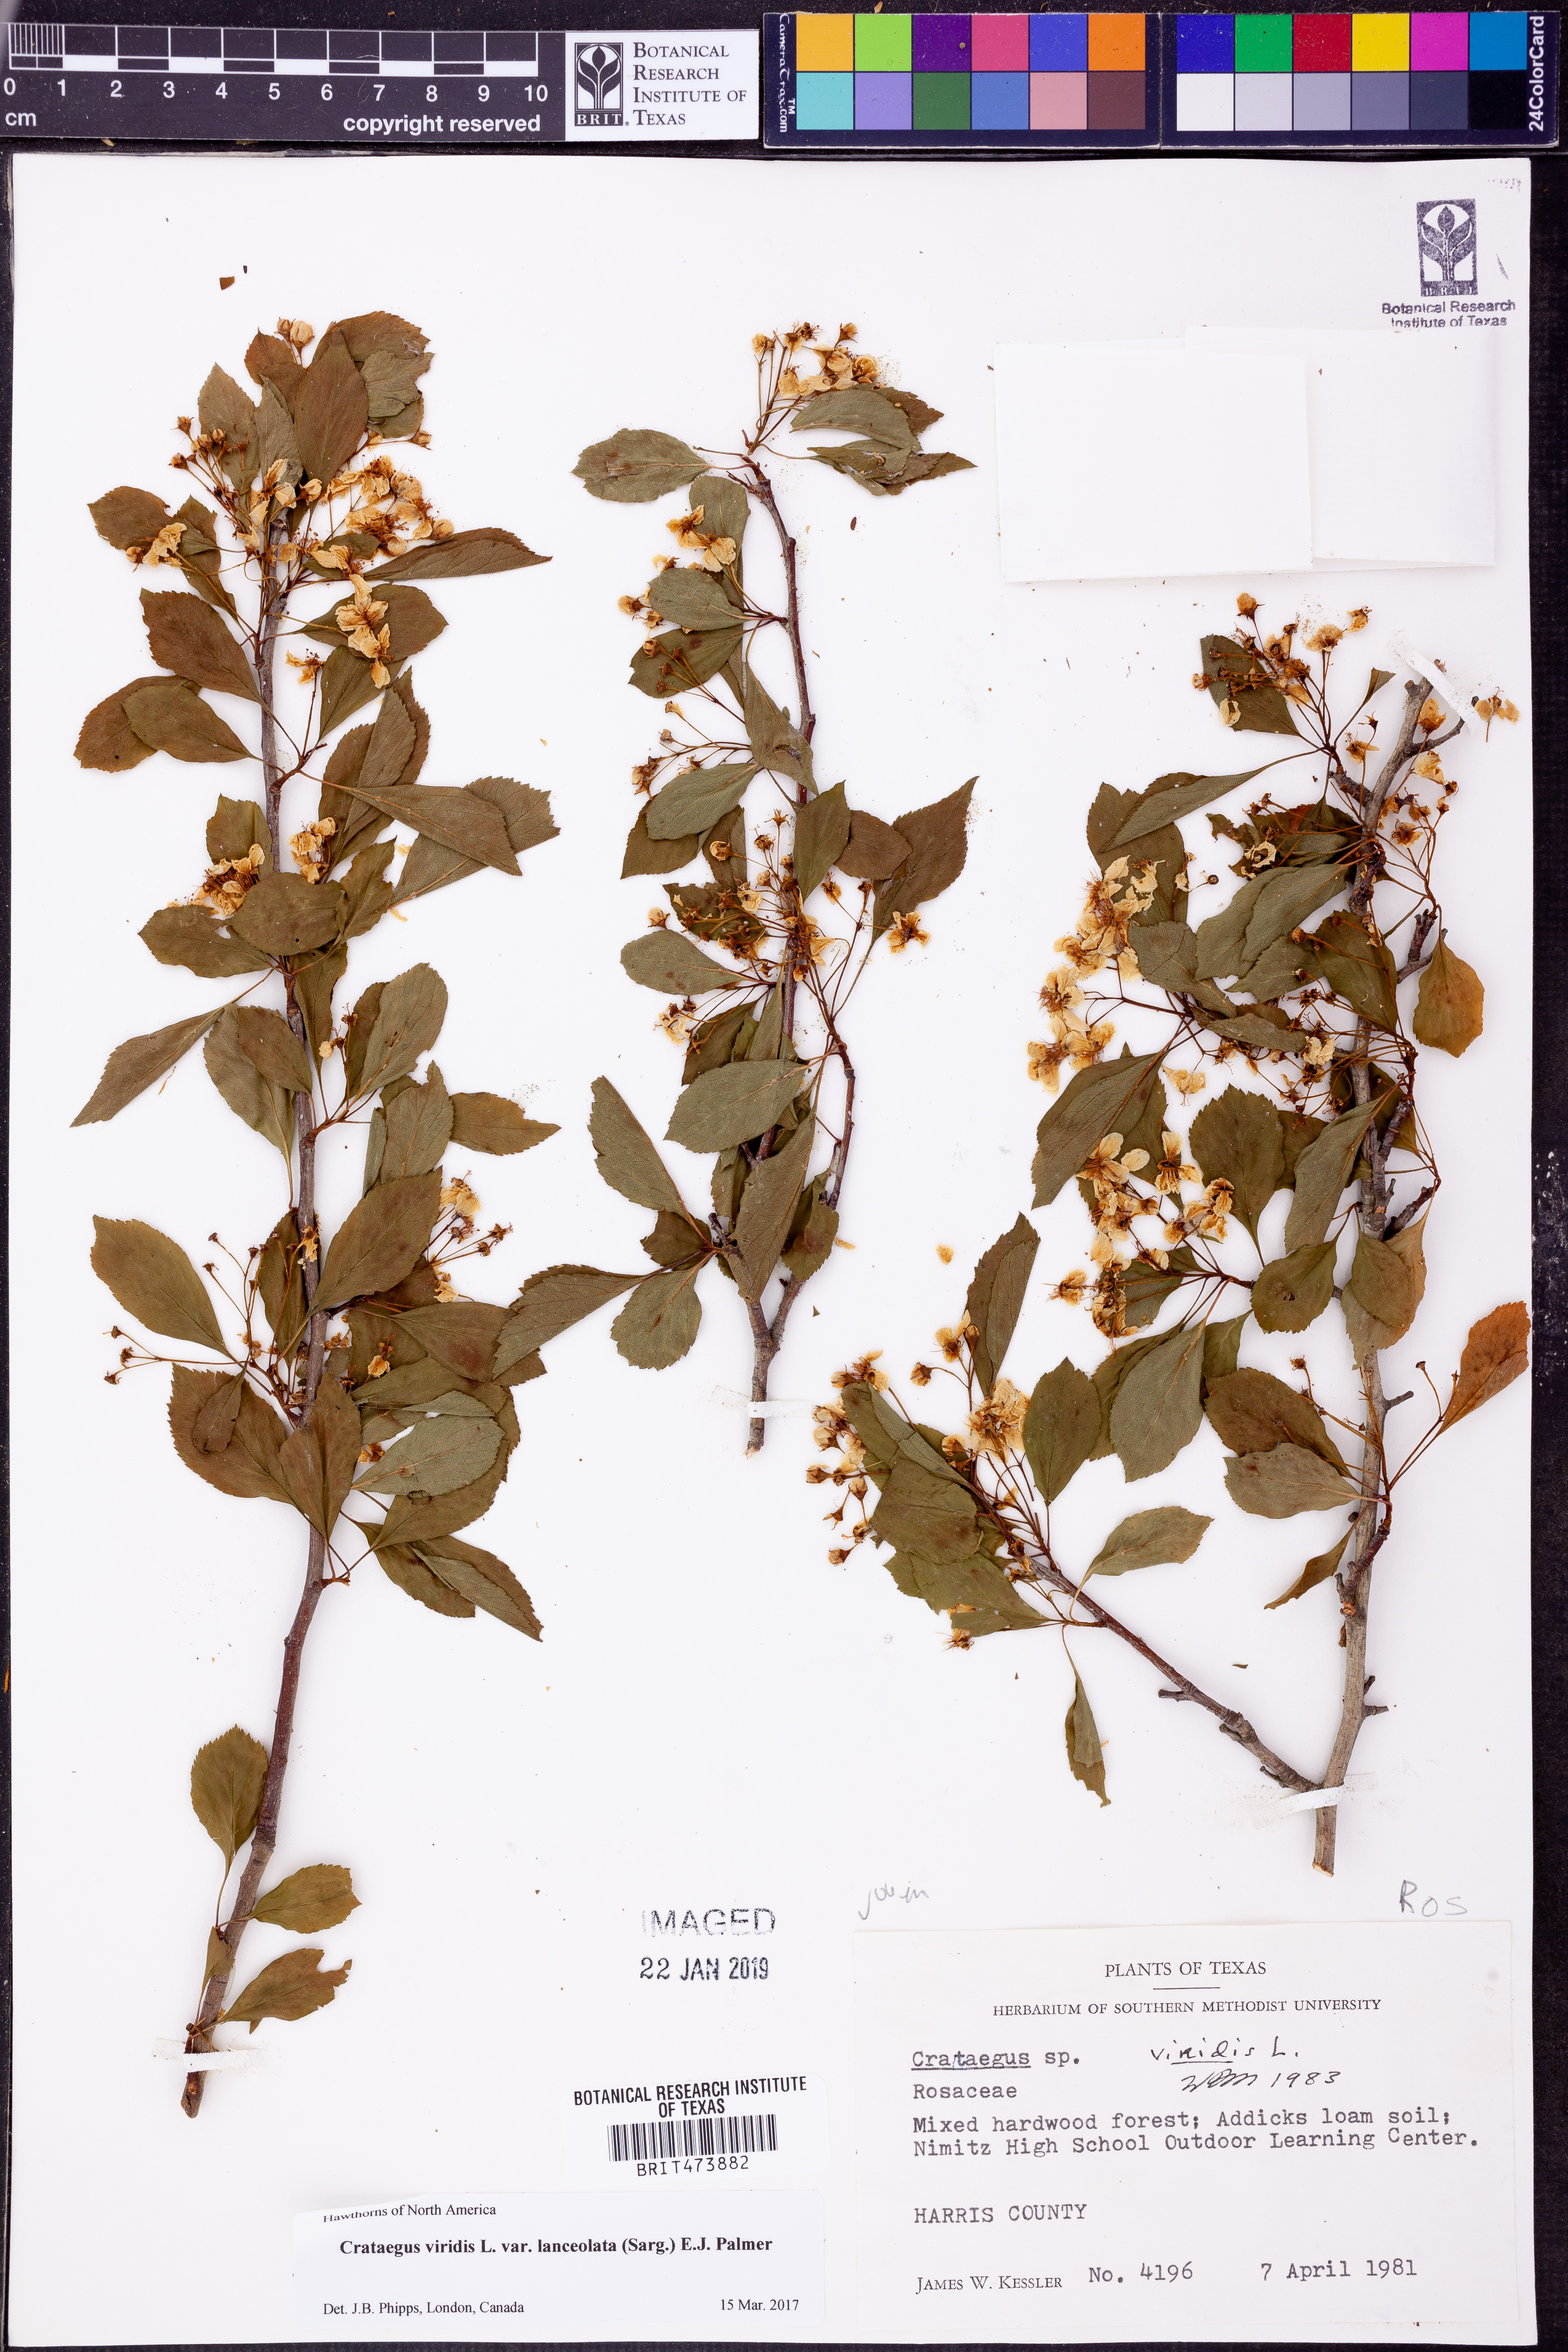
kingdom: Plantae
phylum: Tracheophyta
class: Magnoliopsida
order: Rosales
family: Rosaceae
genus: Crataegus
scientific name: Crataegus viridis
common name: Southernthorn
